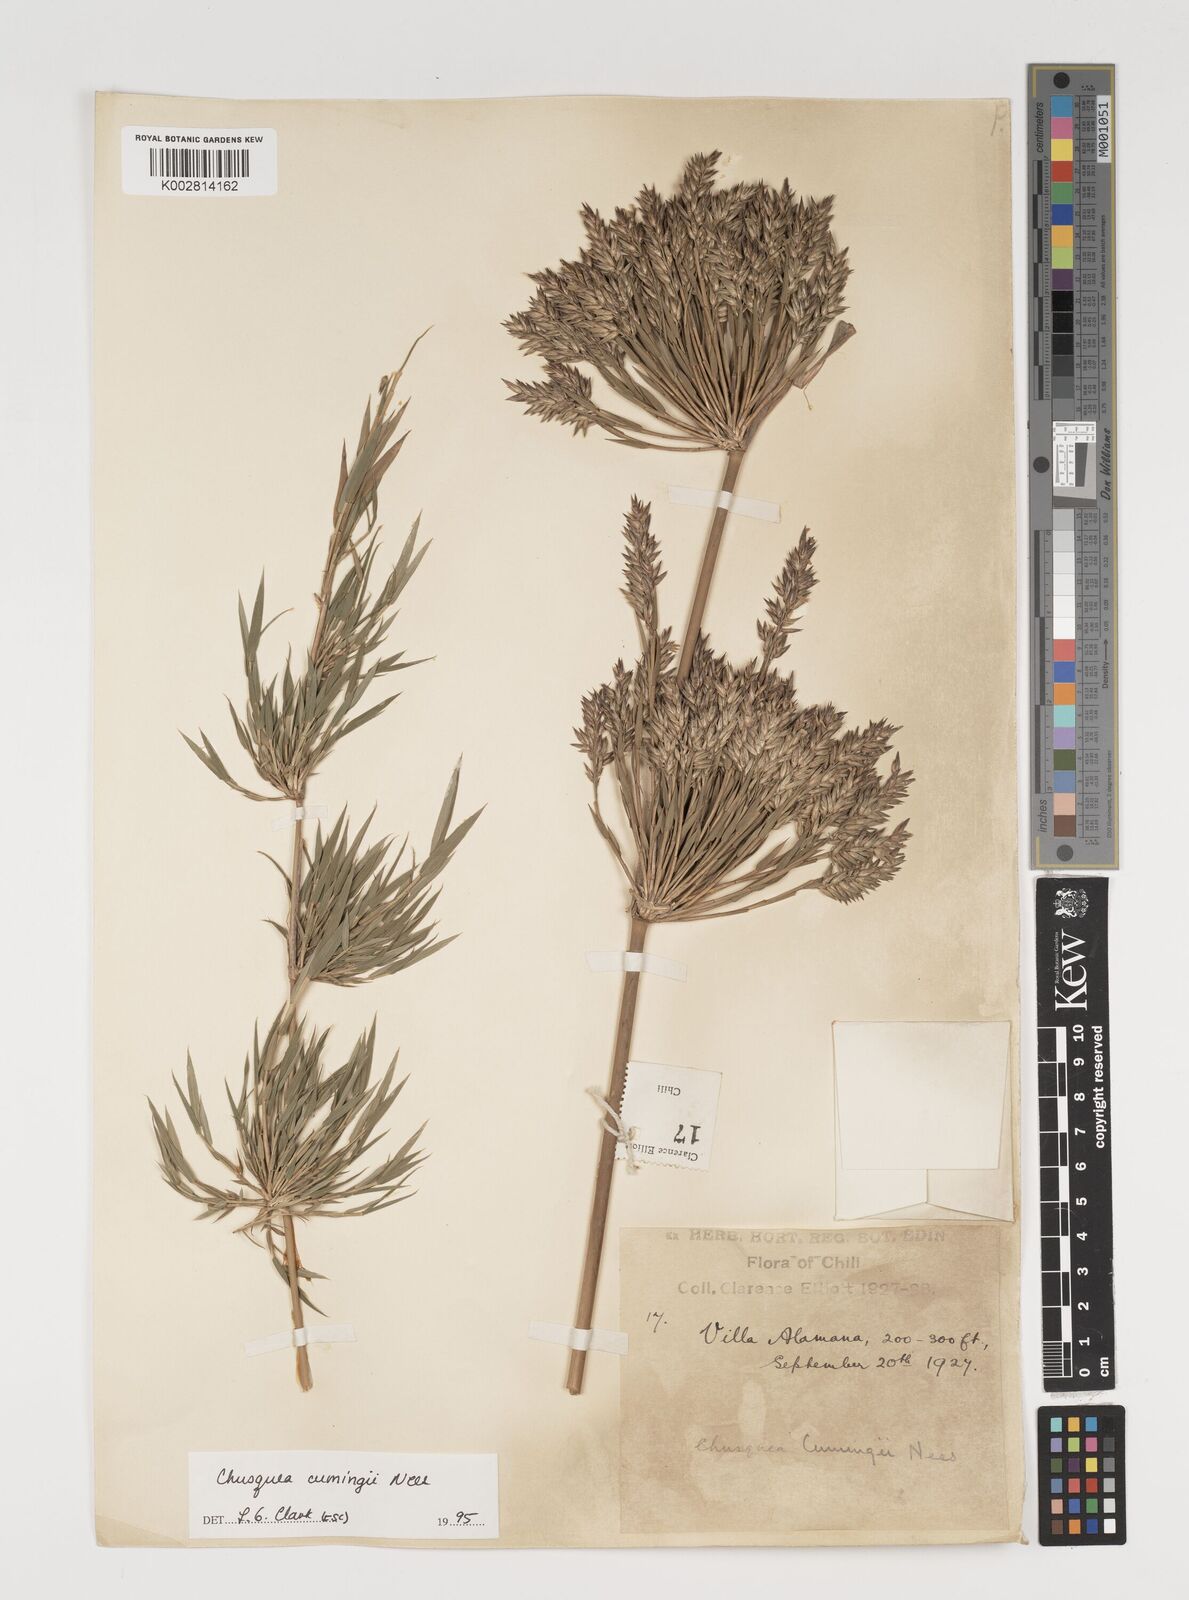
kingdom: Plantae
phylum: Tracheophyta
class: Liliopsida
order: Poales
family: Poaceae
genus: Chusquea
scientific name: Chusquea cumingii
